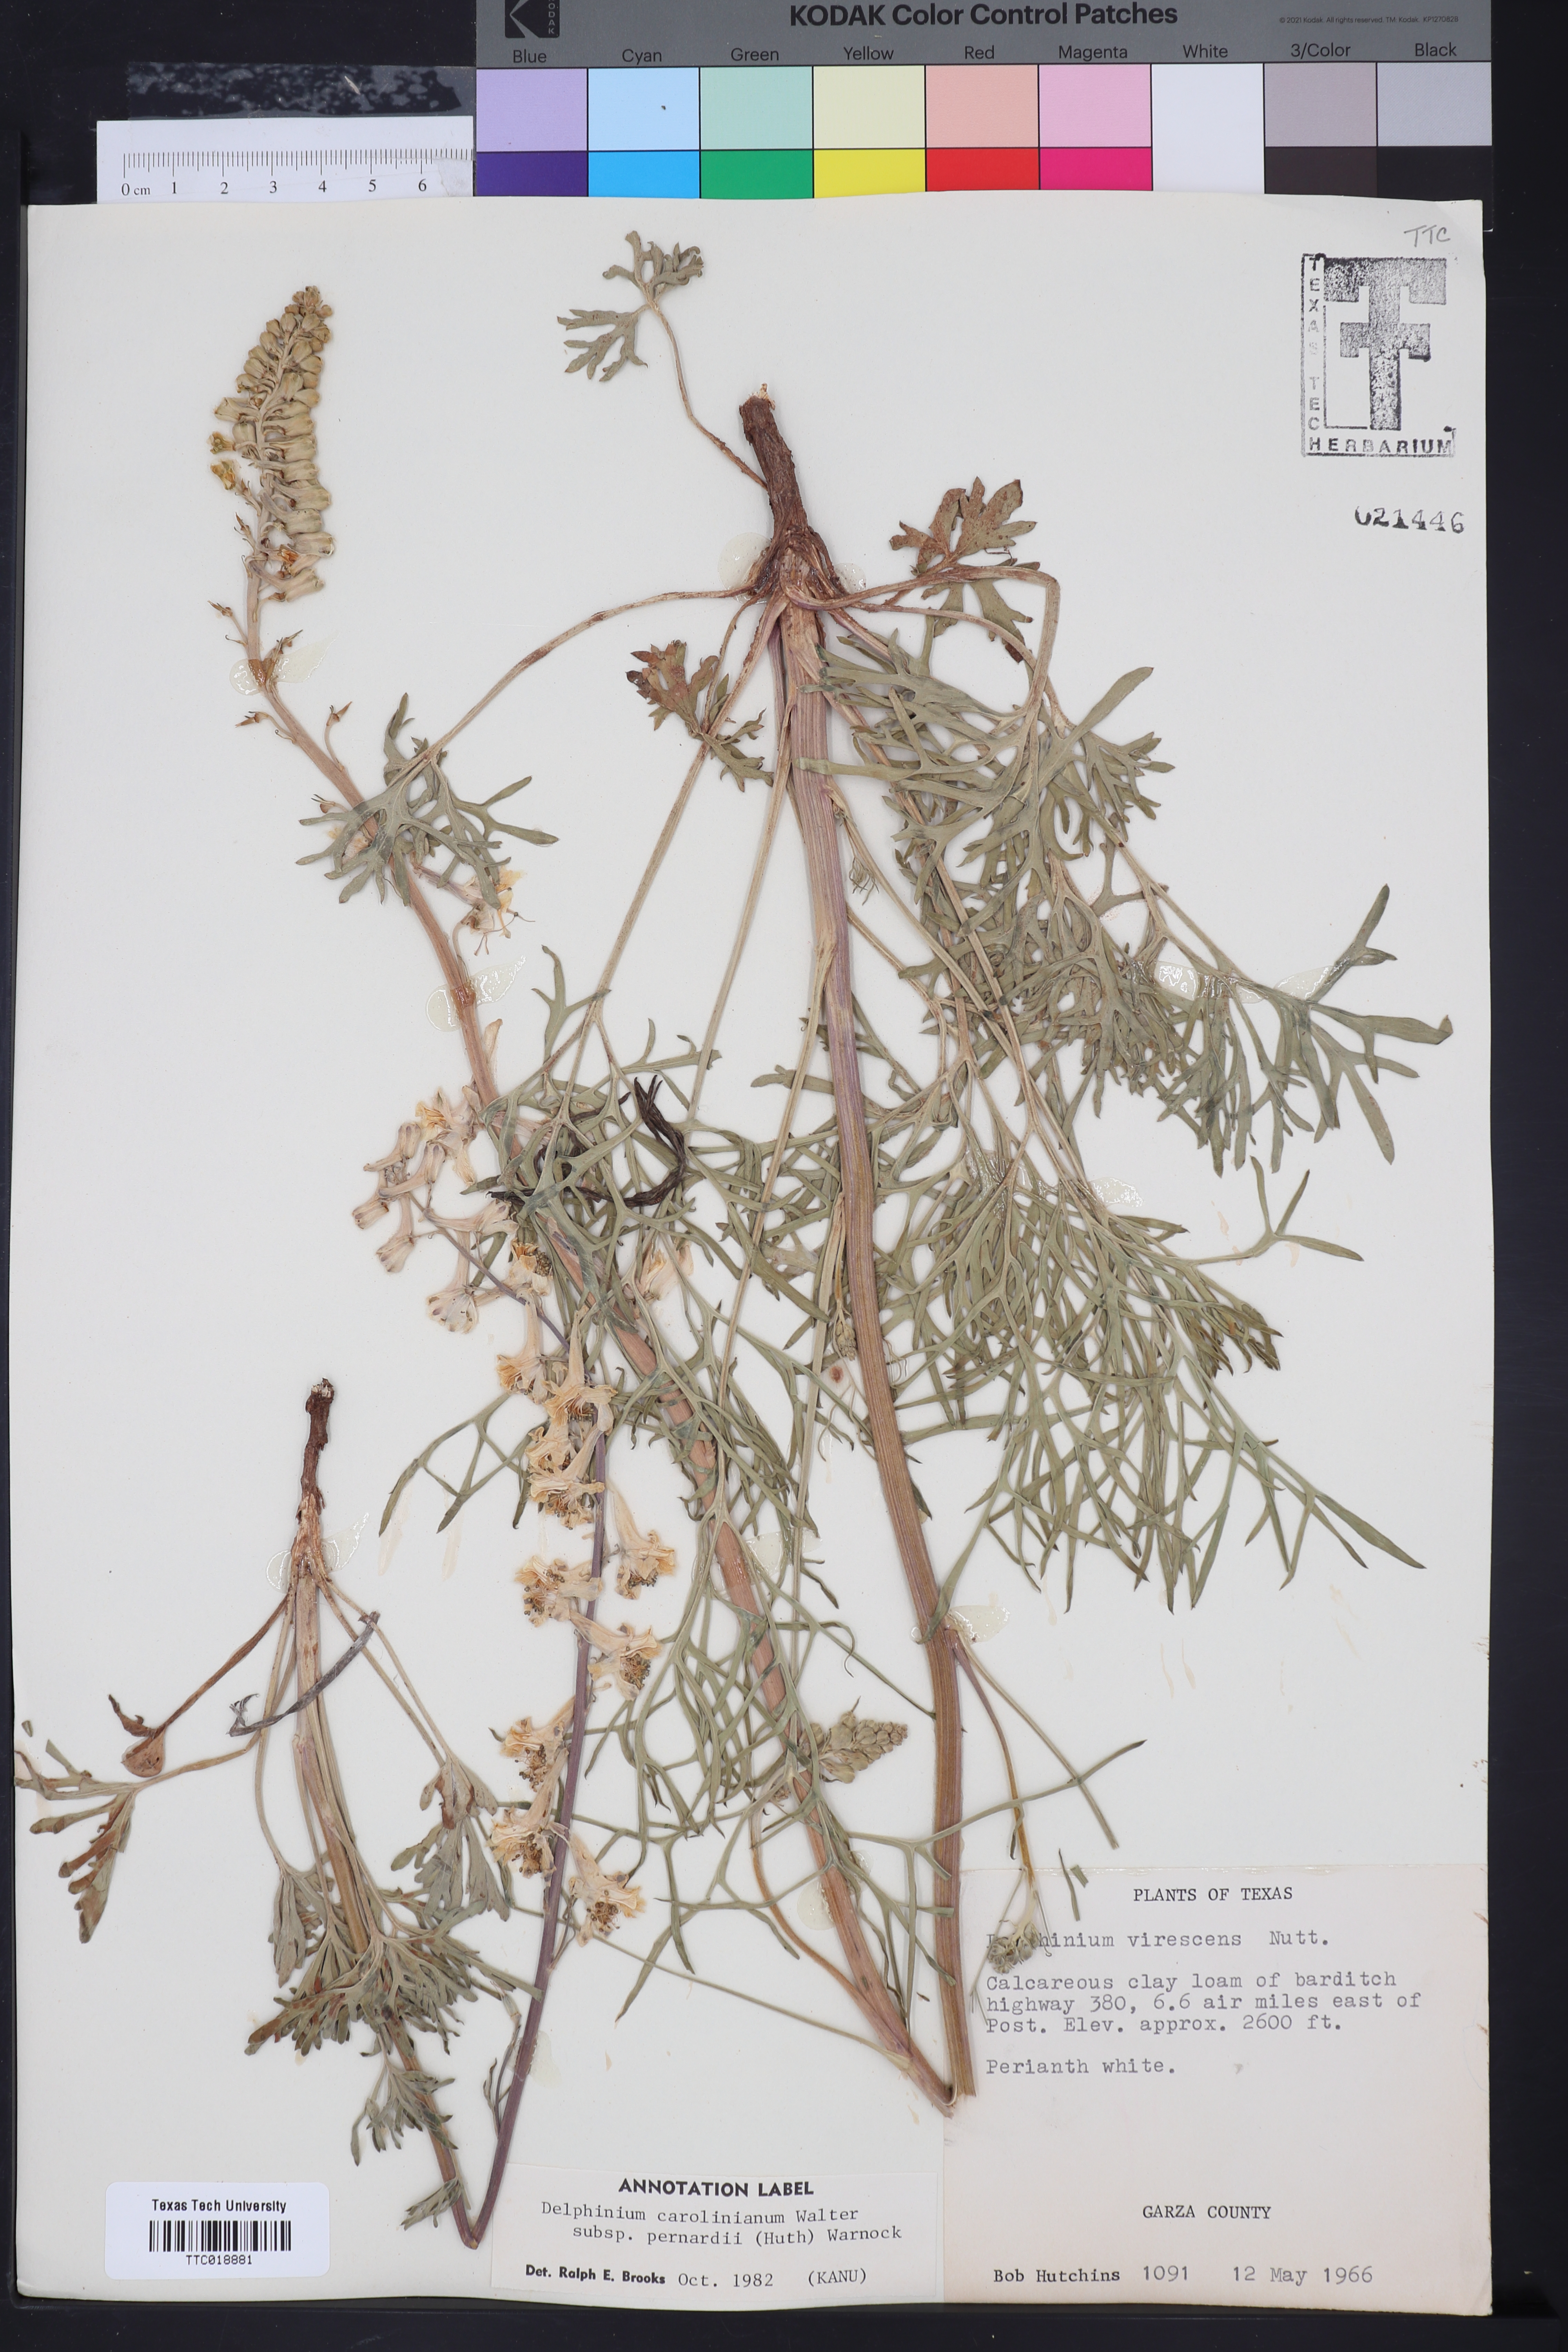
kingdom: Plantae
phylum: Tracheophyta
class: Magnoliopsida
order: Ranunculales
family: Ranunculaceae
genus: Delphinium
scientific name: Delphinium carolinianum
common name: Carolina larkspur
